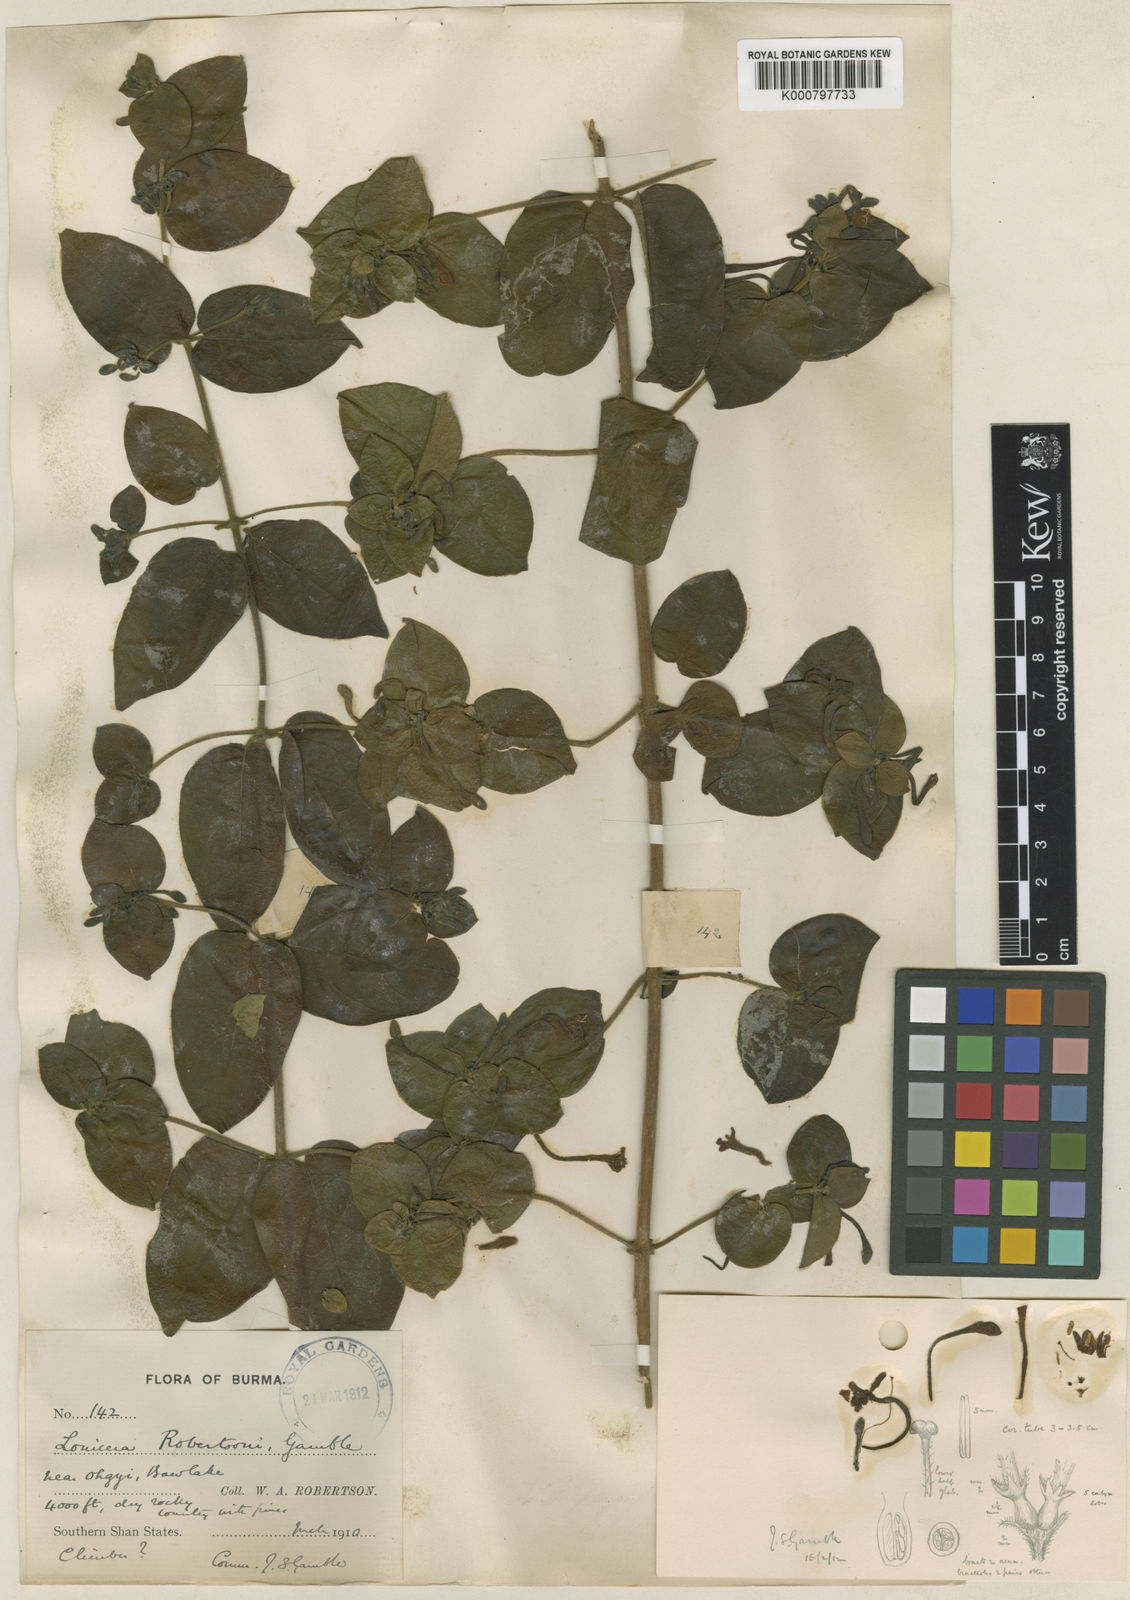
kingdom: Plantae
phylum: Tracheophyta
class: Magnoliopsida
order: Dipsacales
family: Caprifoliaceae
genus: Lonicera
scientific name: Lonicera siamensis
